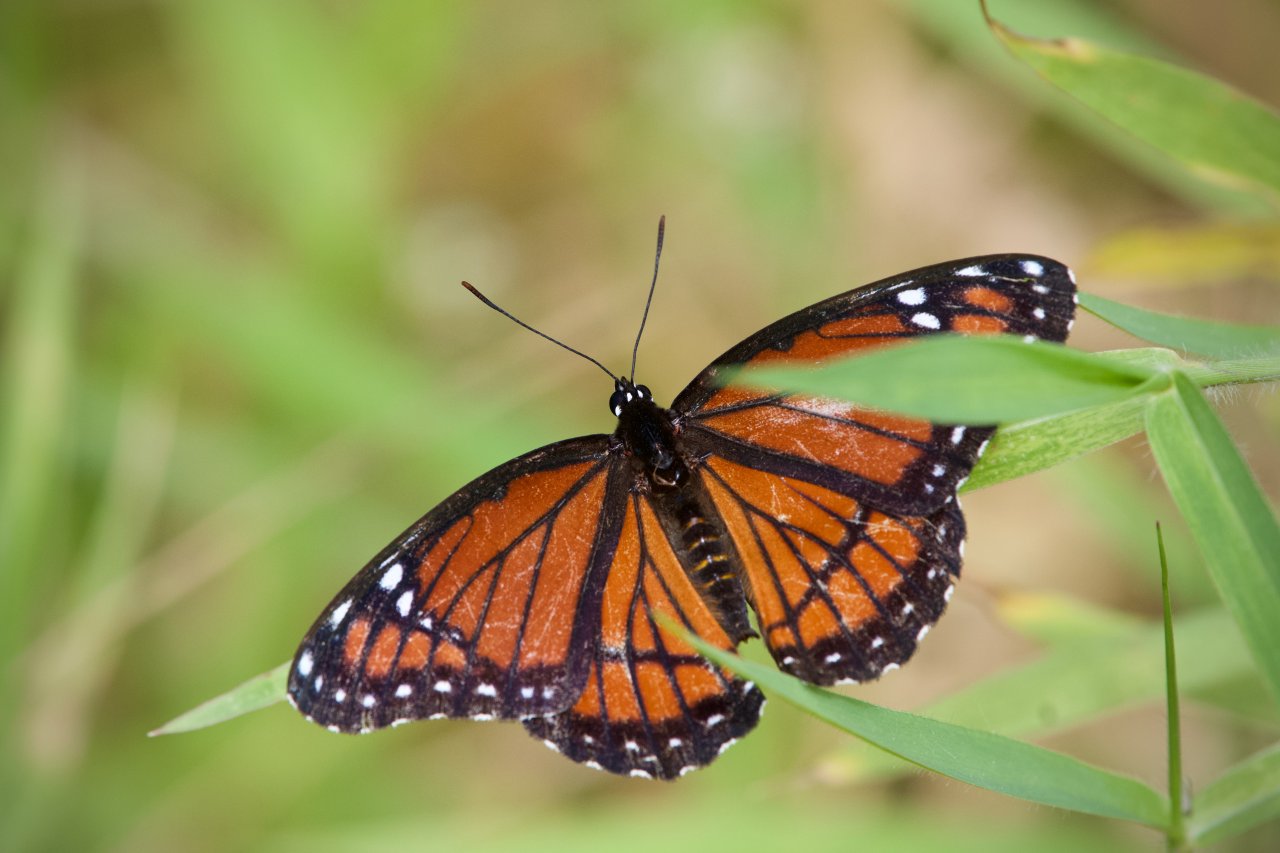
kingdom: Animalia
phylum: Arthropoda
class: Insecta
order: Lepidoptera
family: Nymphalidae
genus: Limenitis
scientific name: Limenitis archippus
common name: Viceroy
